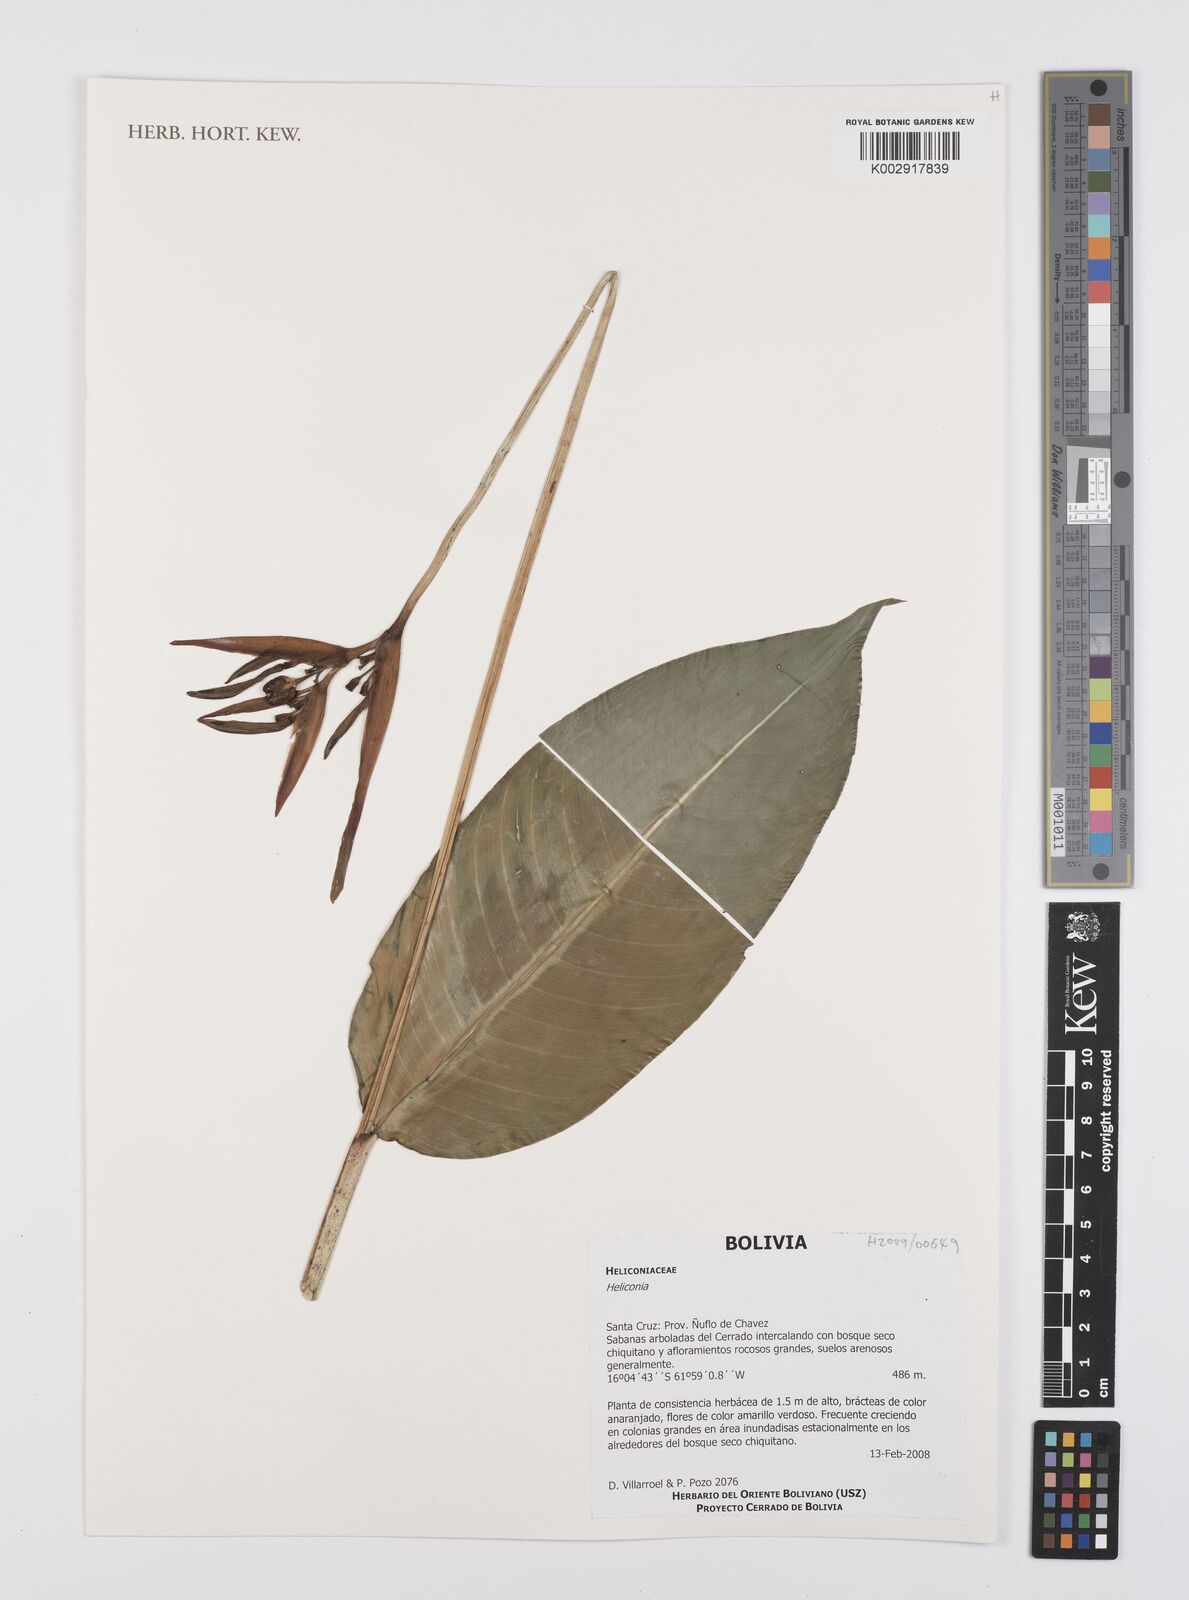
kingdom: Plantae
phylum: Tracheophyta
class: Liliopsida
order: Zingiberales
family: Heliconiaceae
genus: Heliconia
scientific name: Heliconia
